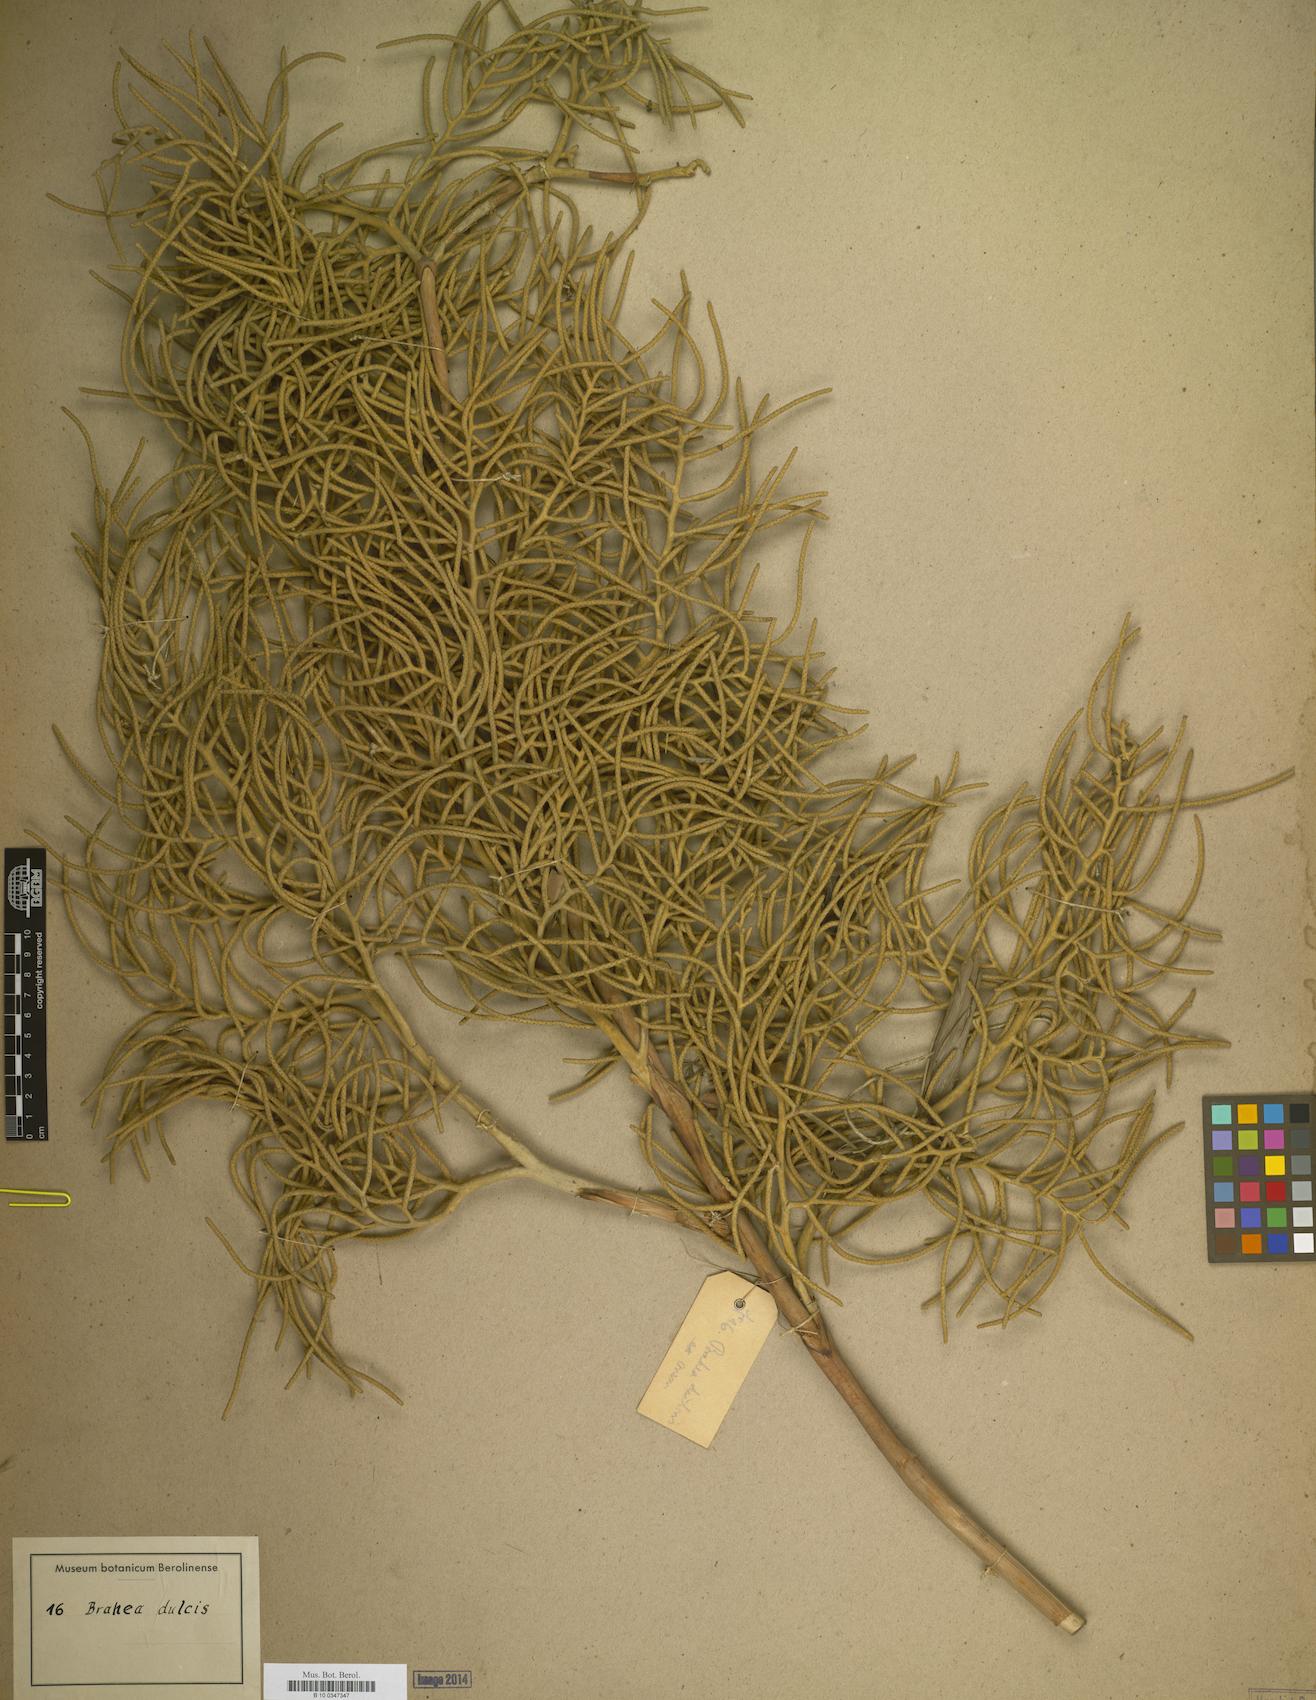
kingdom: Plantae
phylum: Tracheophyta
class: Liliopsida
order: Arecales
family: Arecaceae
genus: Brahea
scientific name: Brahea dulcis
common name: Apak palm
